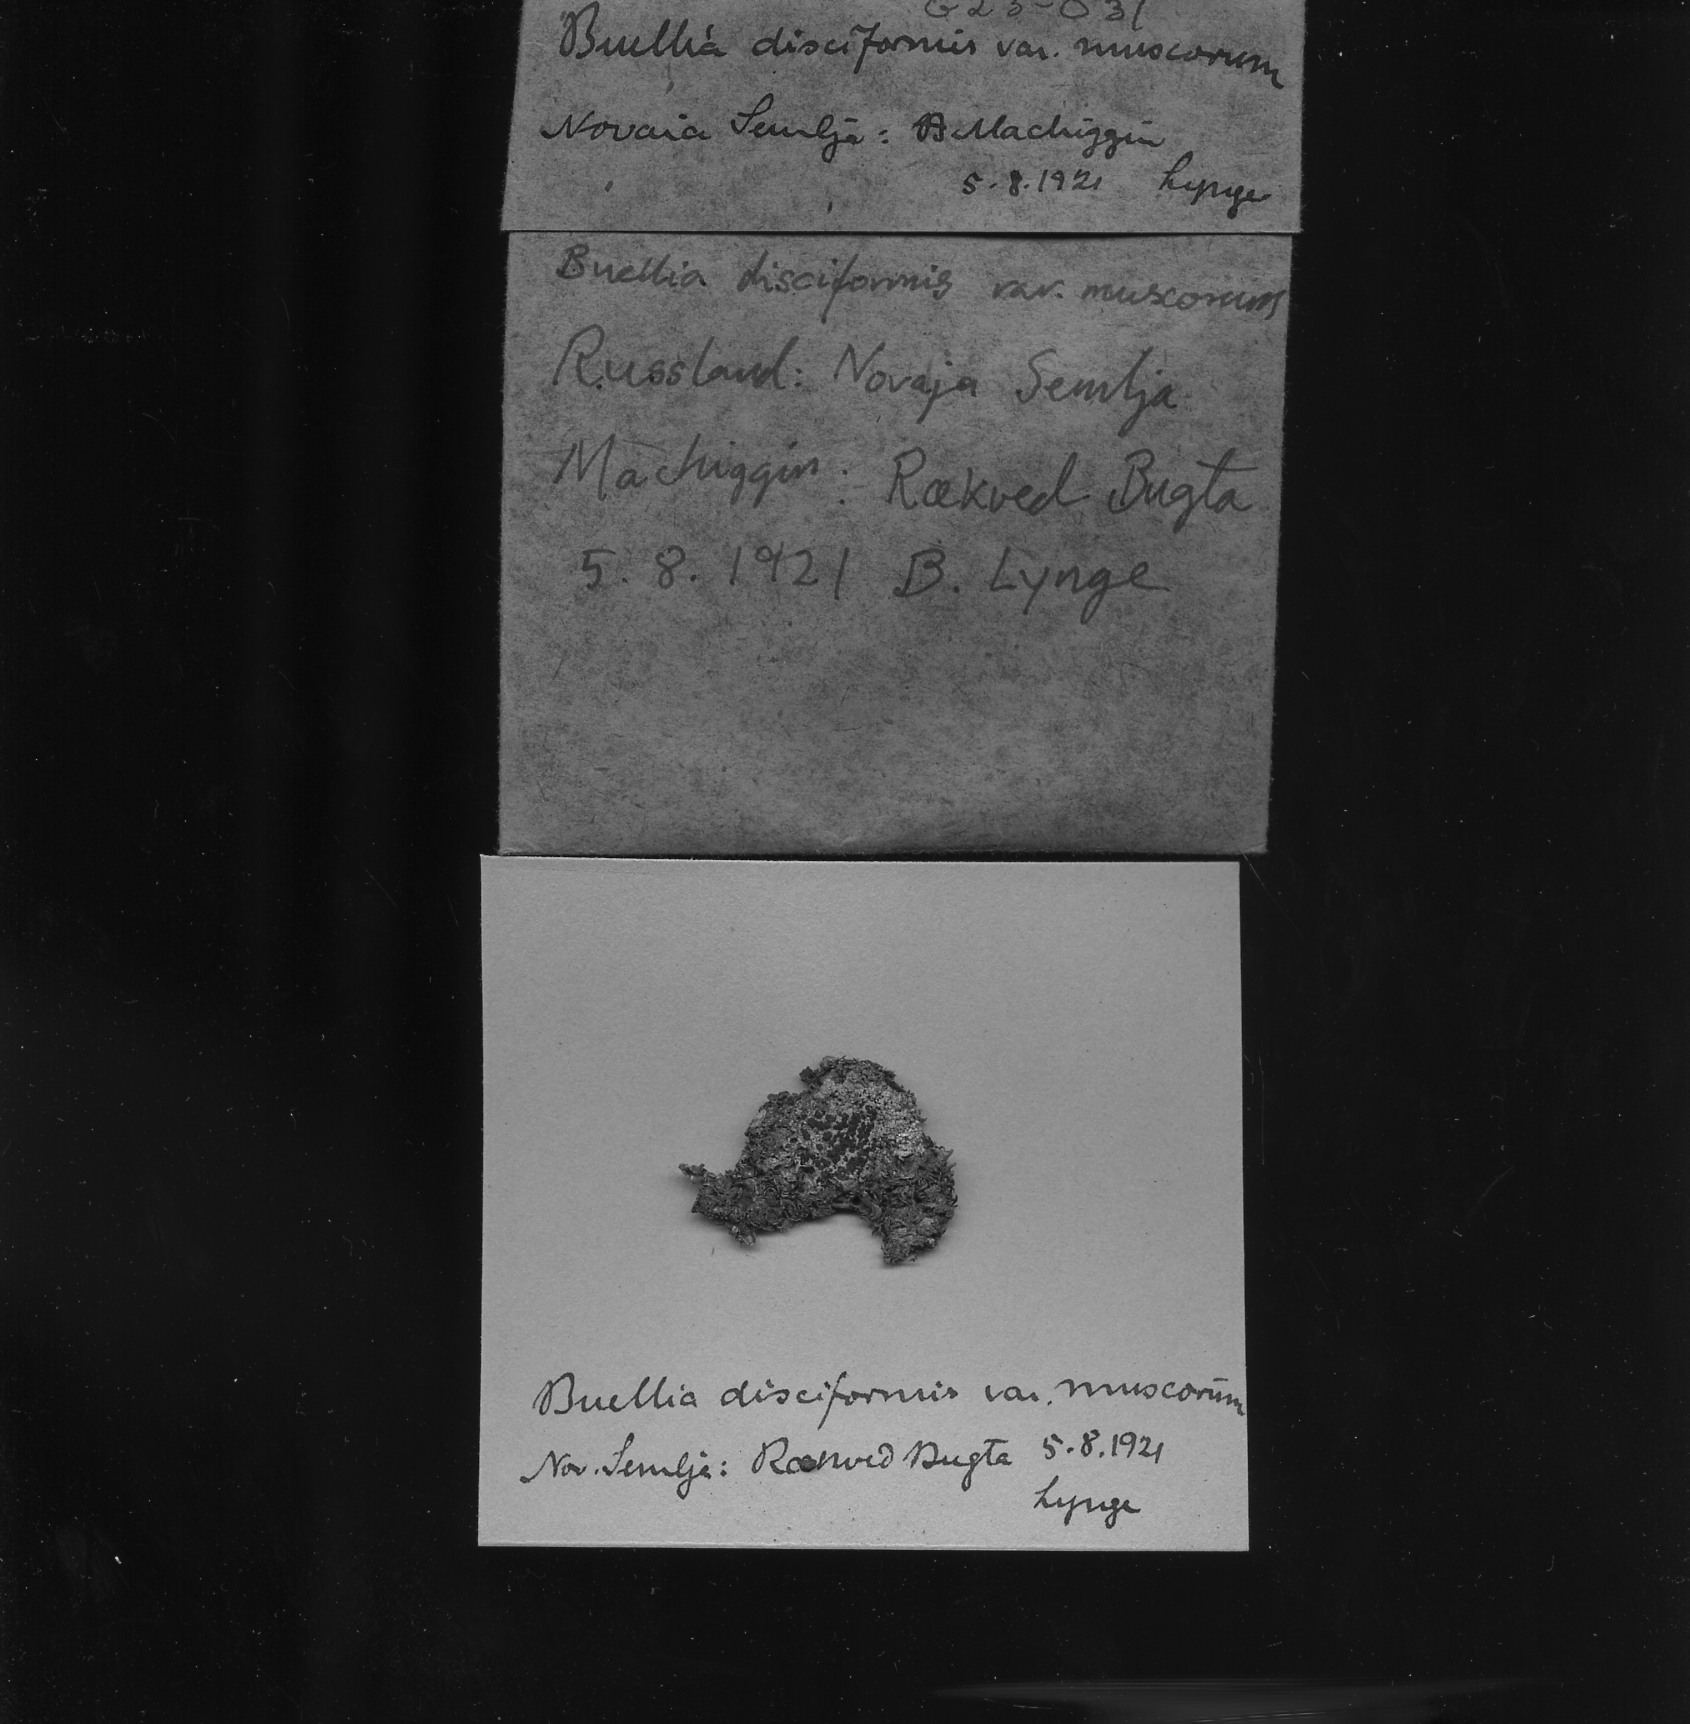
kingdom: Fungi
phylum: Ascomycota
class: Lecanoromycetes
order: Caliciales
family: Caliciaceae
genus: Buellia
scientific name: Buellia disciformis
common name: Boreal button lichen
